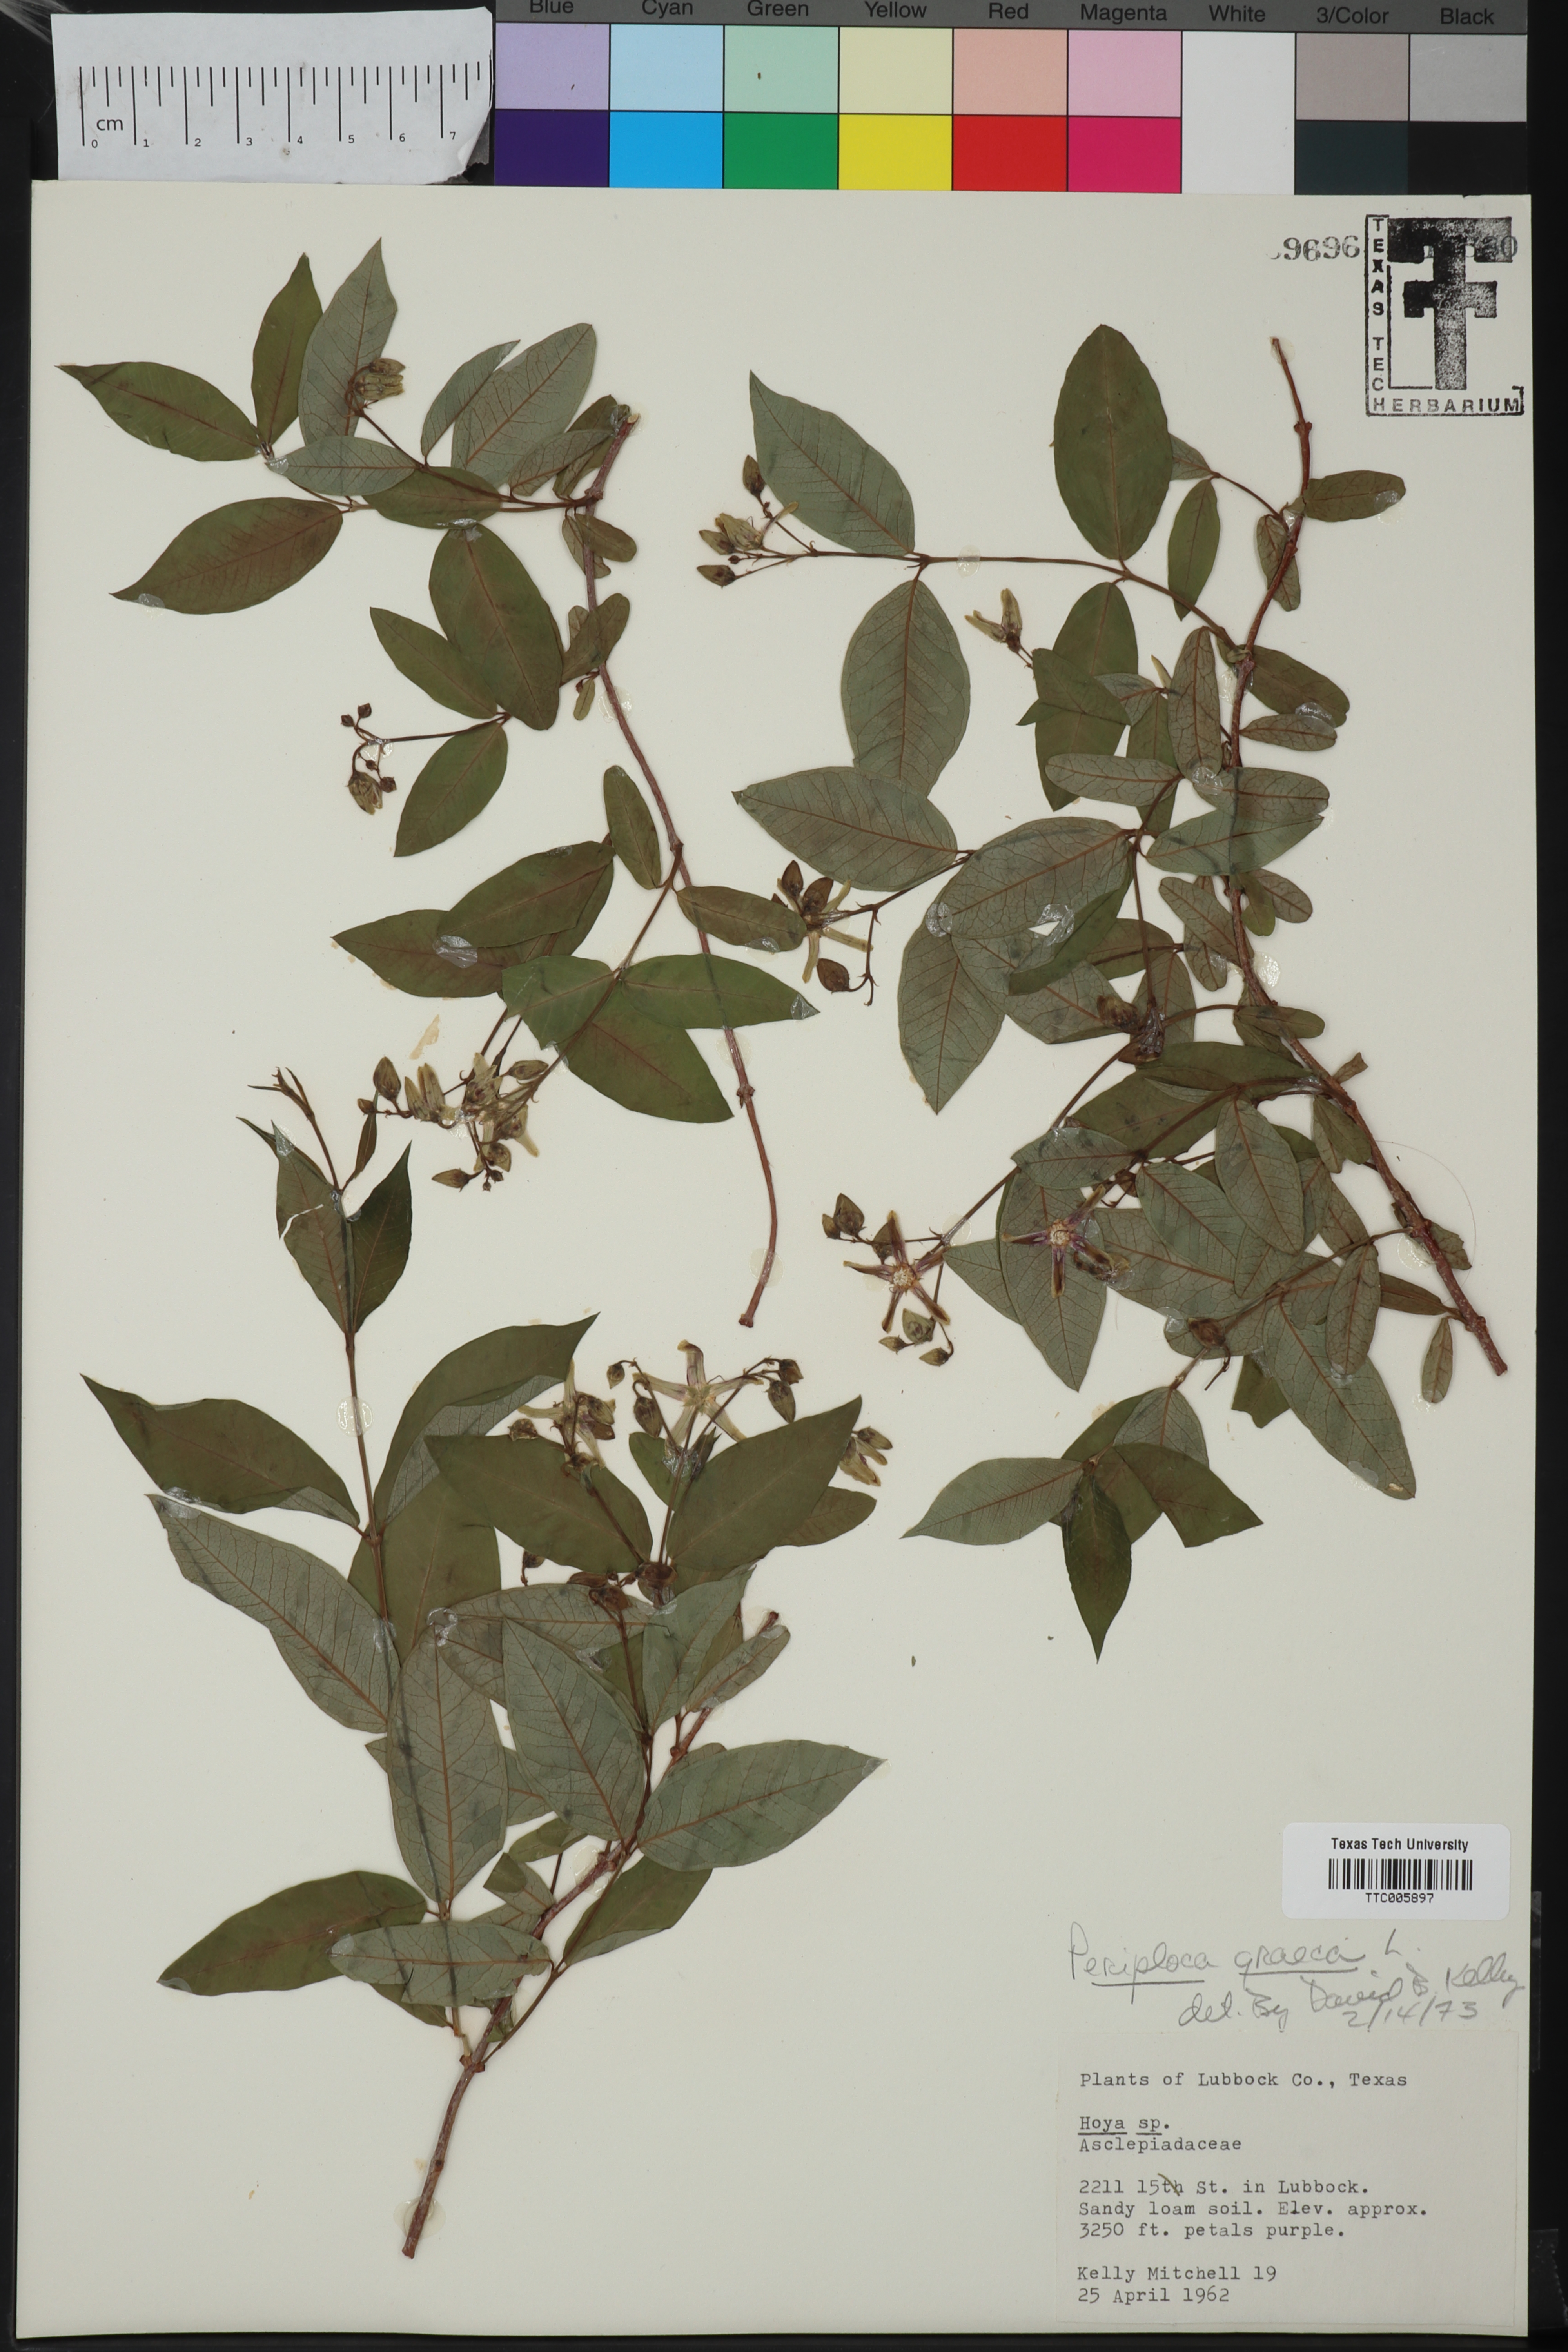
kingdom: Plantae
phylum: Tracheophyta
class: Magnoliopsida
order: Gentianales
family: Apocynaceae
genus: Periploca
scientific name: Periploca graeca
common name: Silkvine
